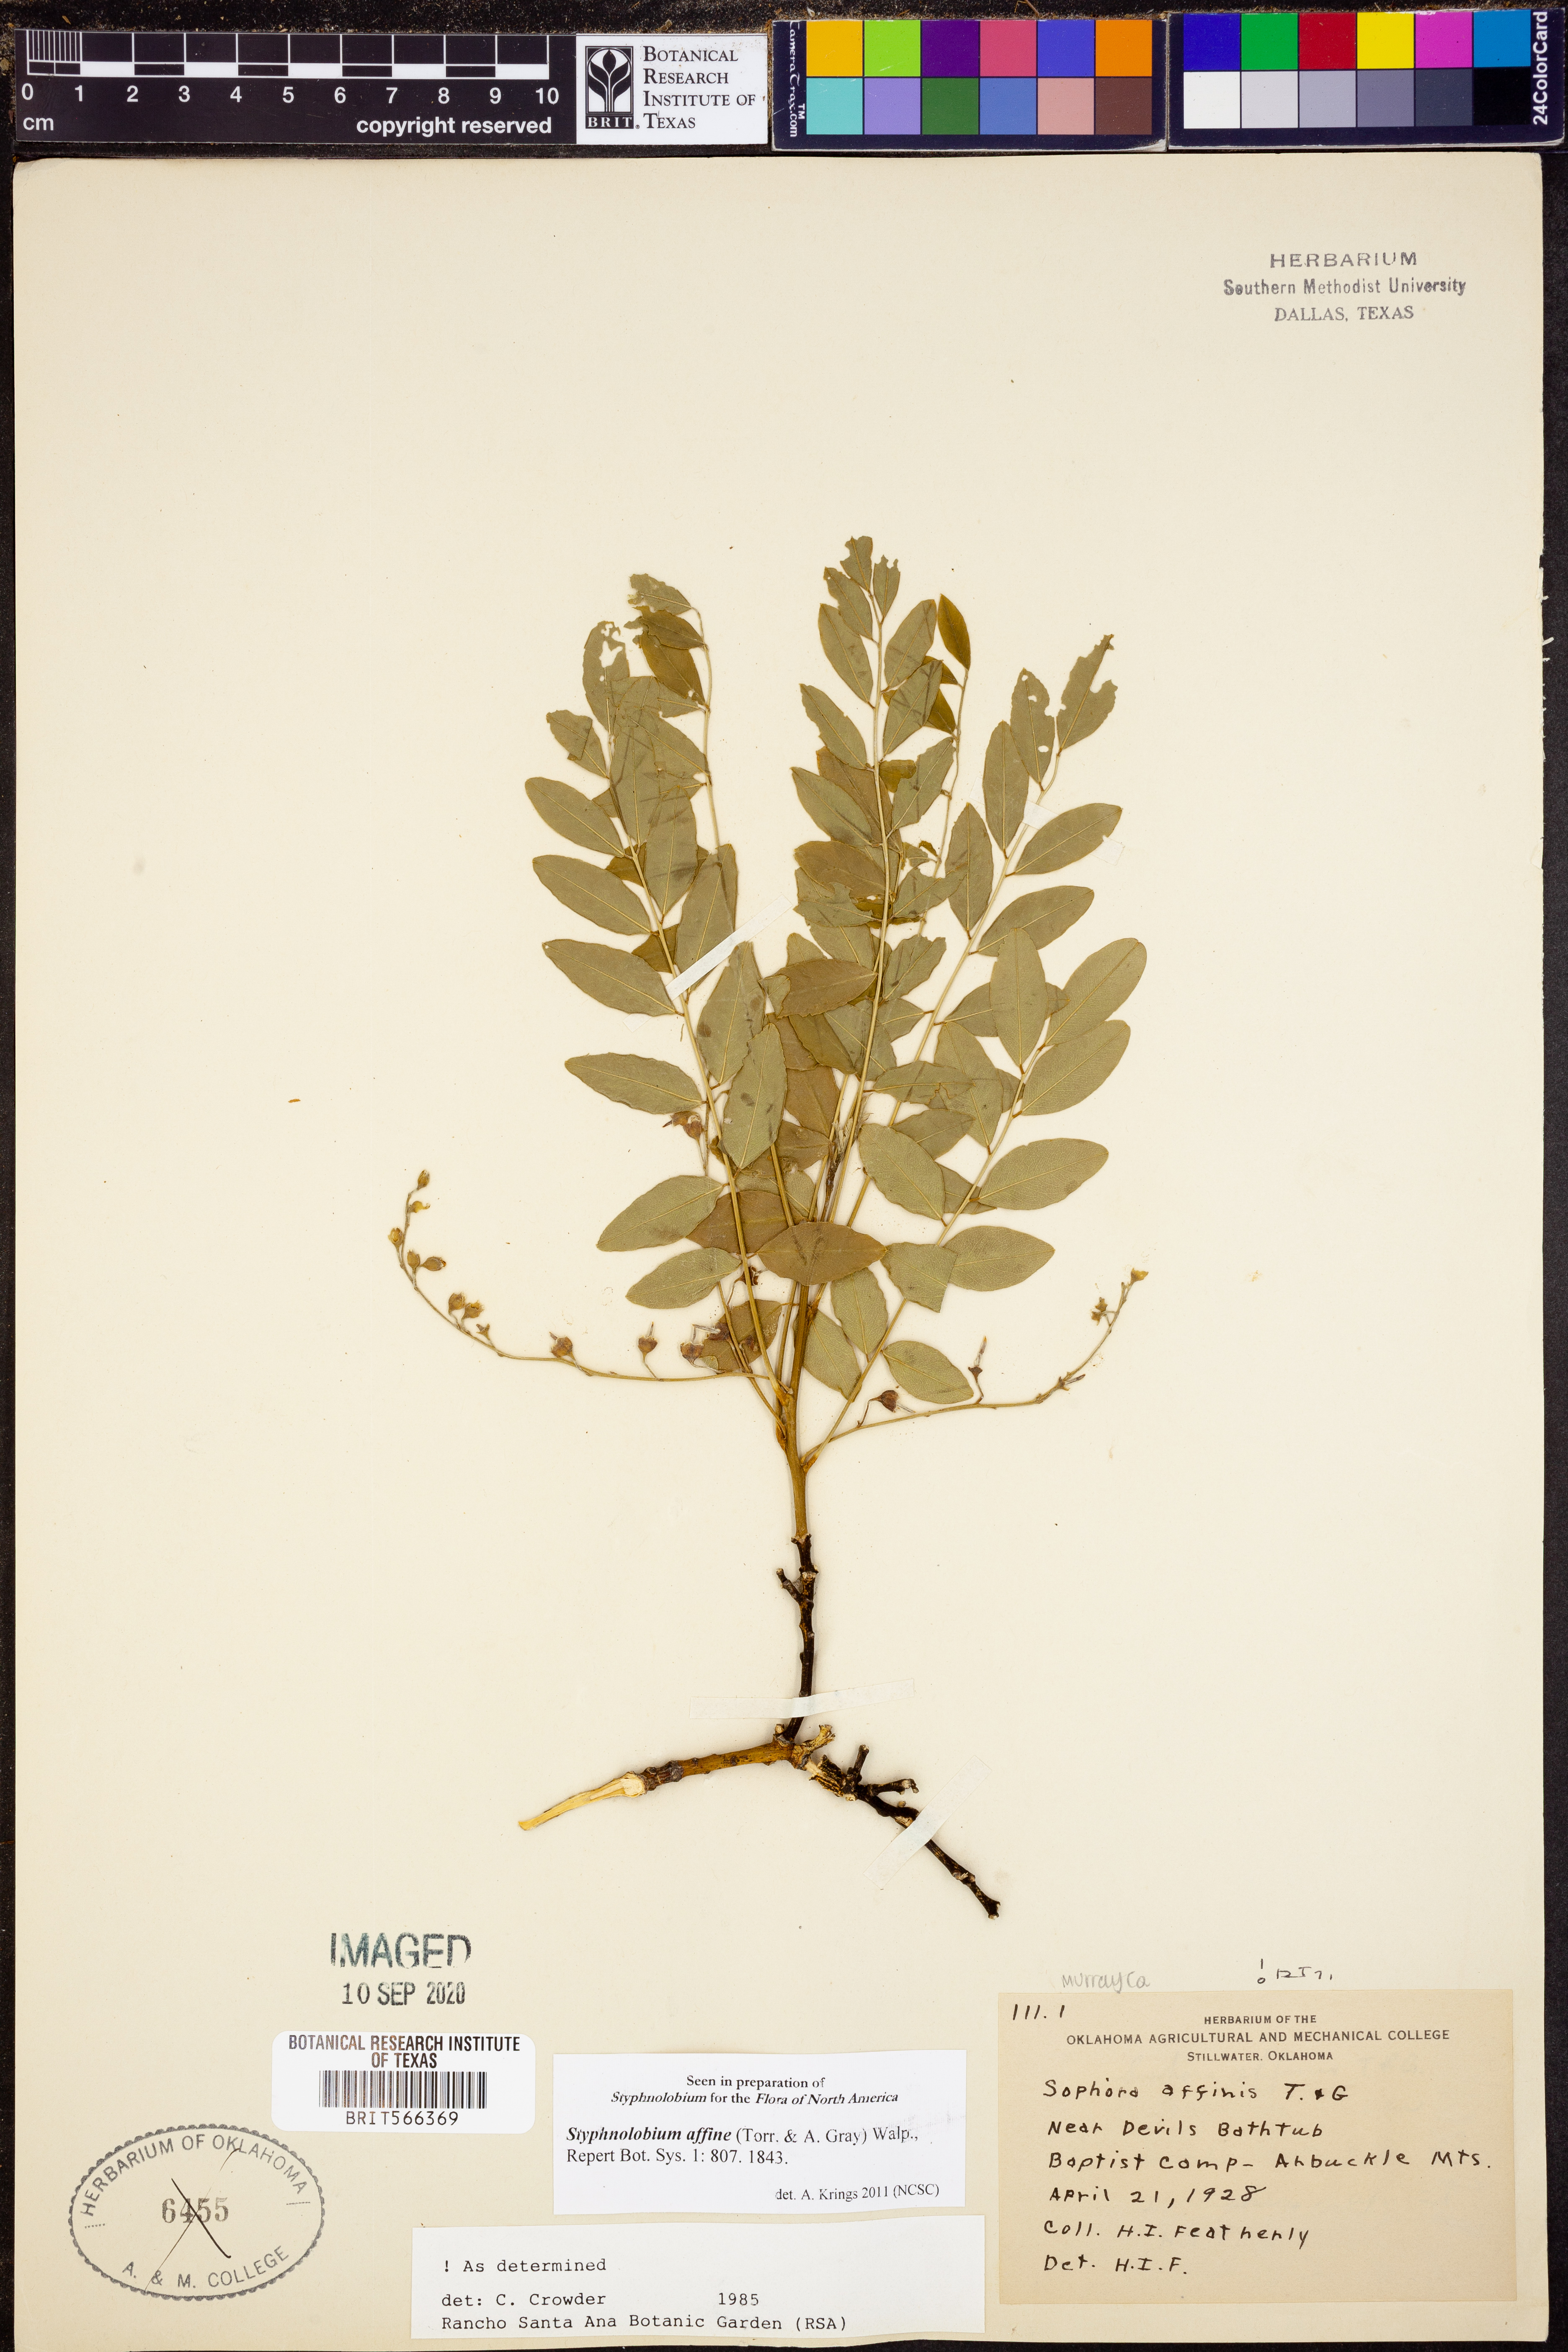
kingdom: Plantae
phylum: Tracheophyta
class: Magnoliopsida
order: Fabales
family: Fabaceae
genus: Styphnolobium
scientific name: Styphnolobium affine
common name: Texas sophora
